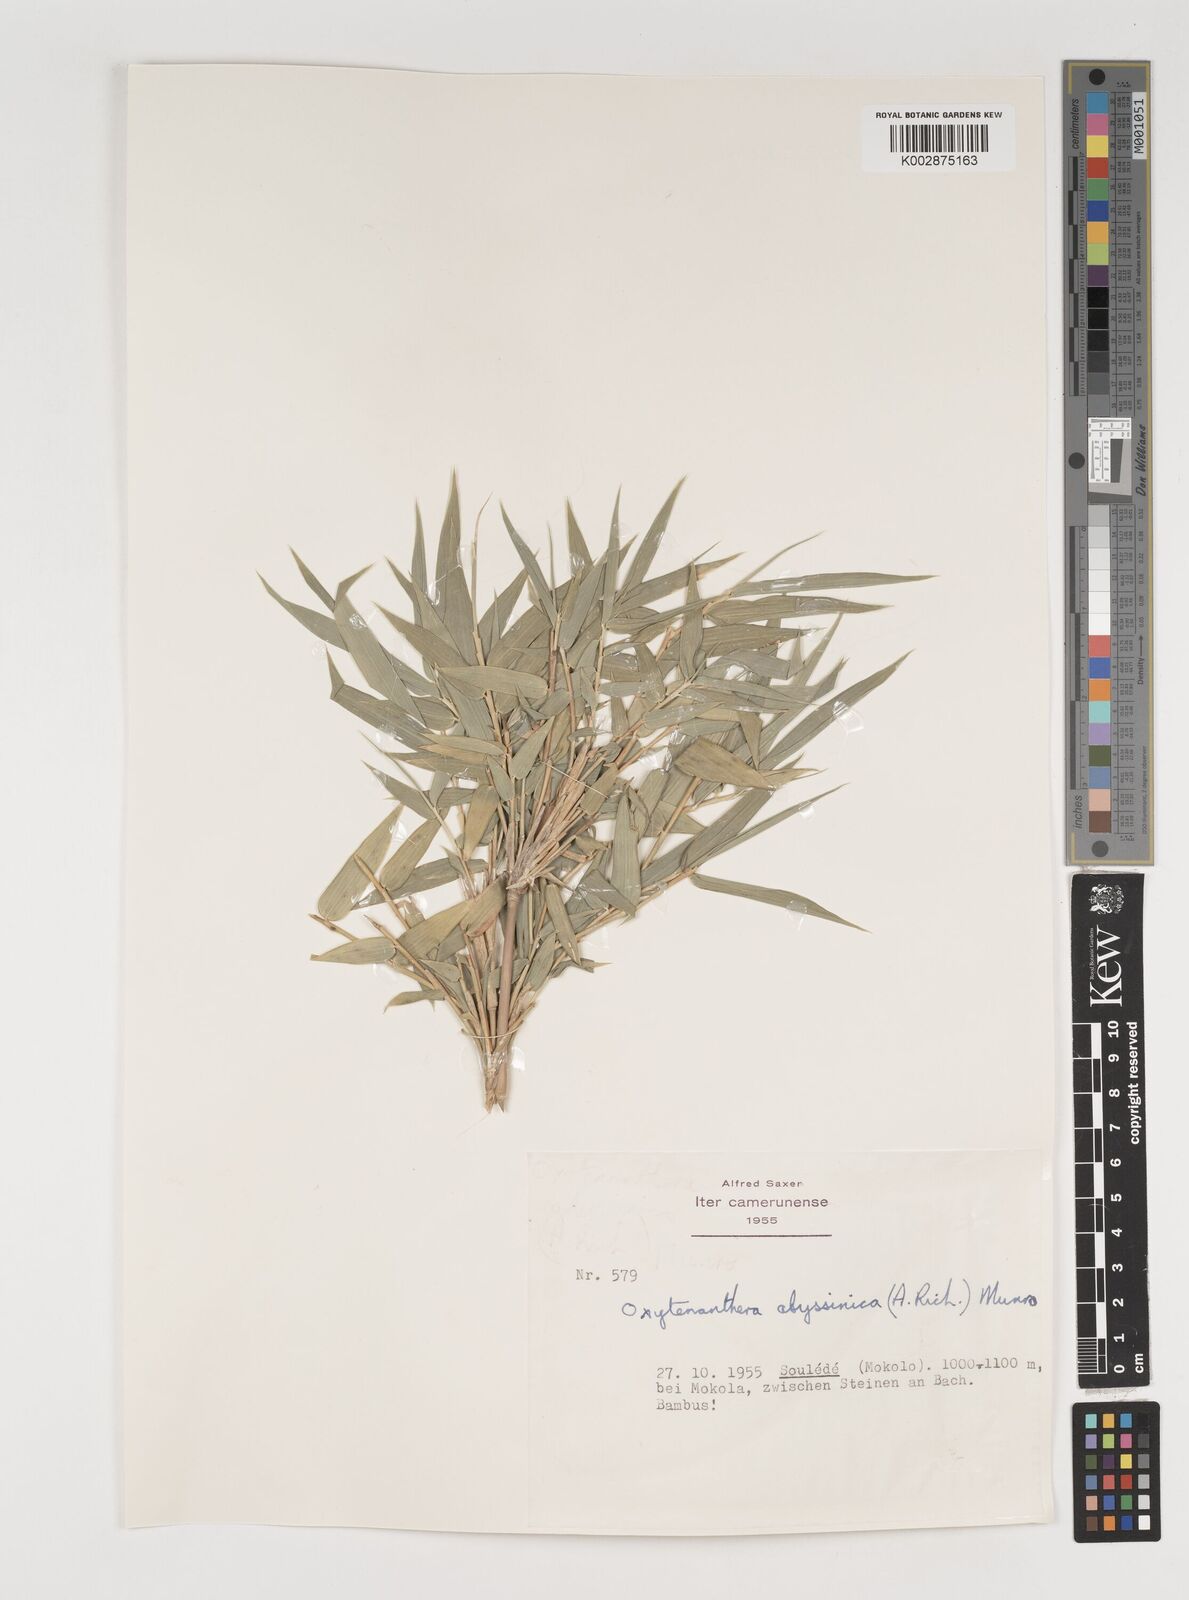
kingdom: Plantae
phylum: Tracheophyta
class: Liliopsida
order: Poales
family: Poaceae
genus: Oxytenanthera
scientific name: Oxytenanthera abyssinica
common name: Wine bamboo
